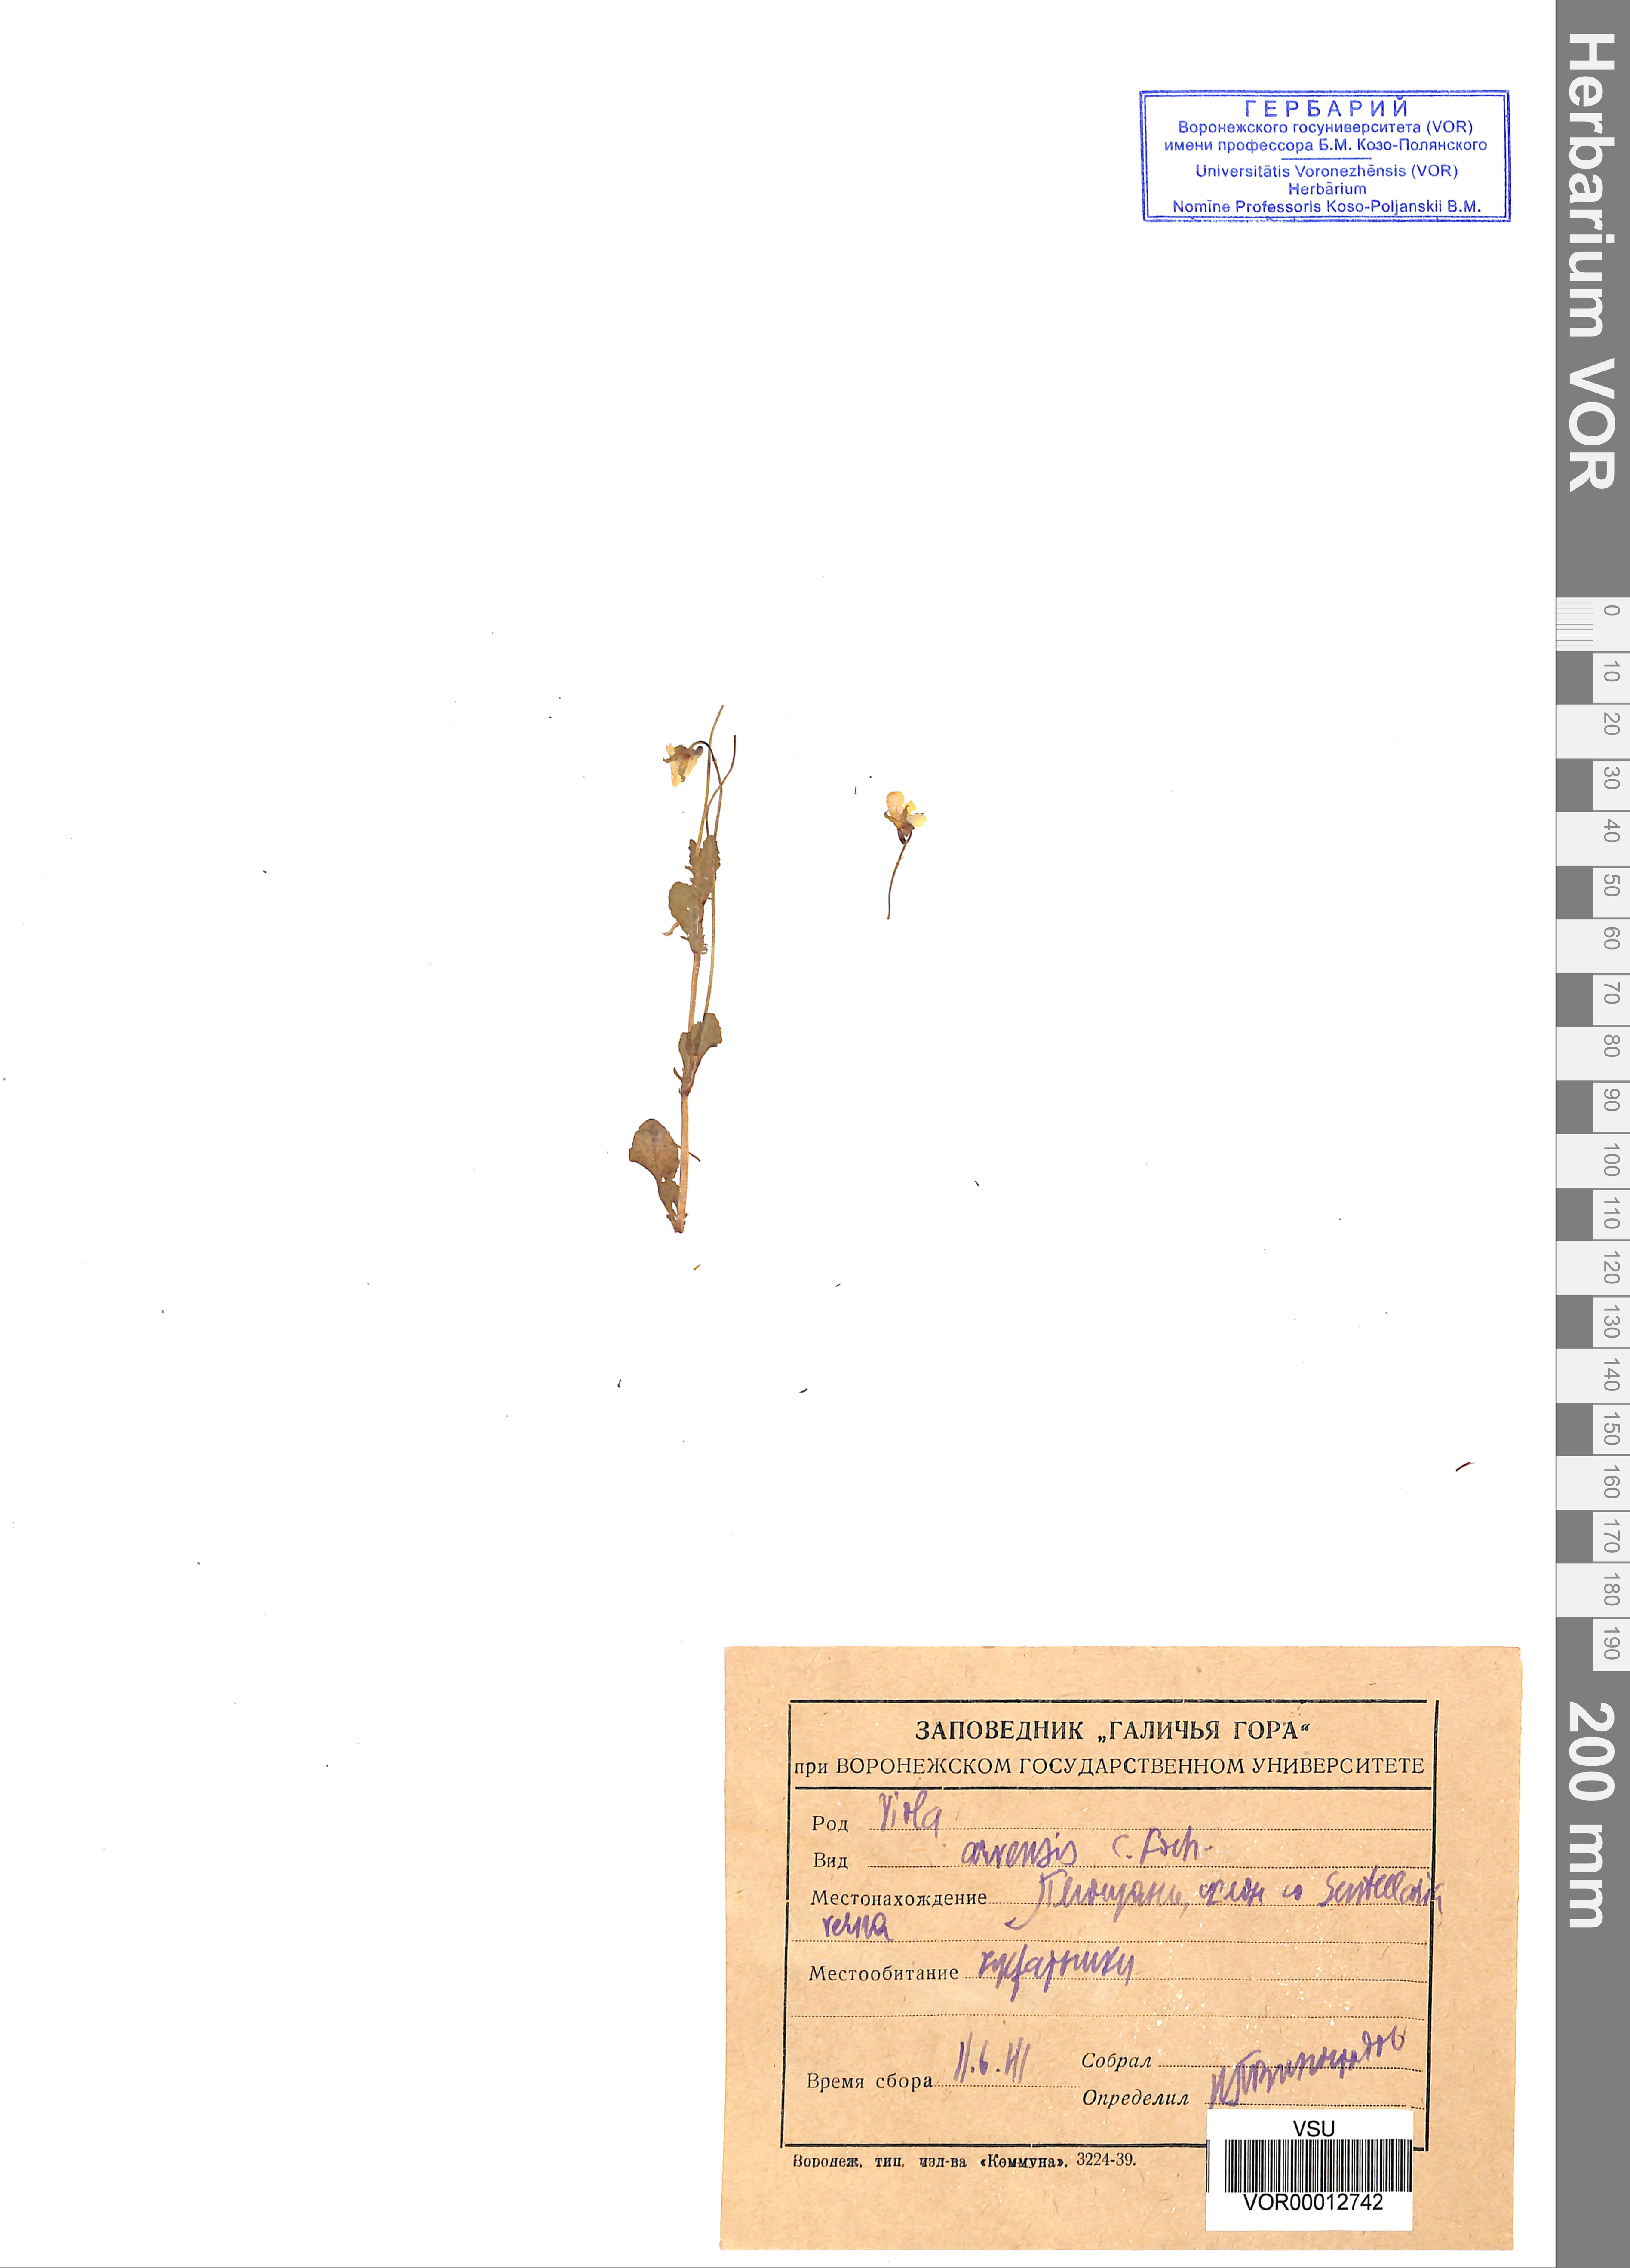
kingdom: Plantae
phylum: Tracheophyta
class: Magnoliopsida
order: Malpighiales
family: Violaceae
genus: Viola
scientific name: Viola arvensis
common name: Field pansy
